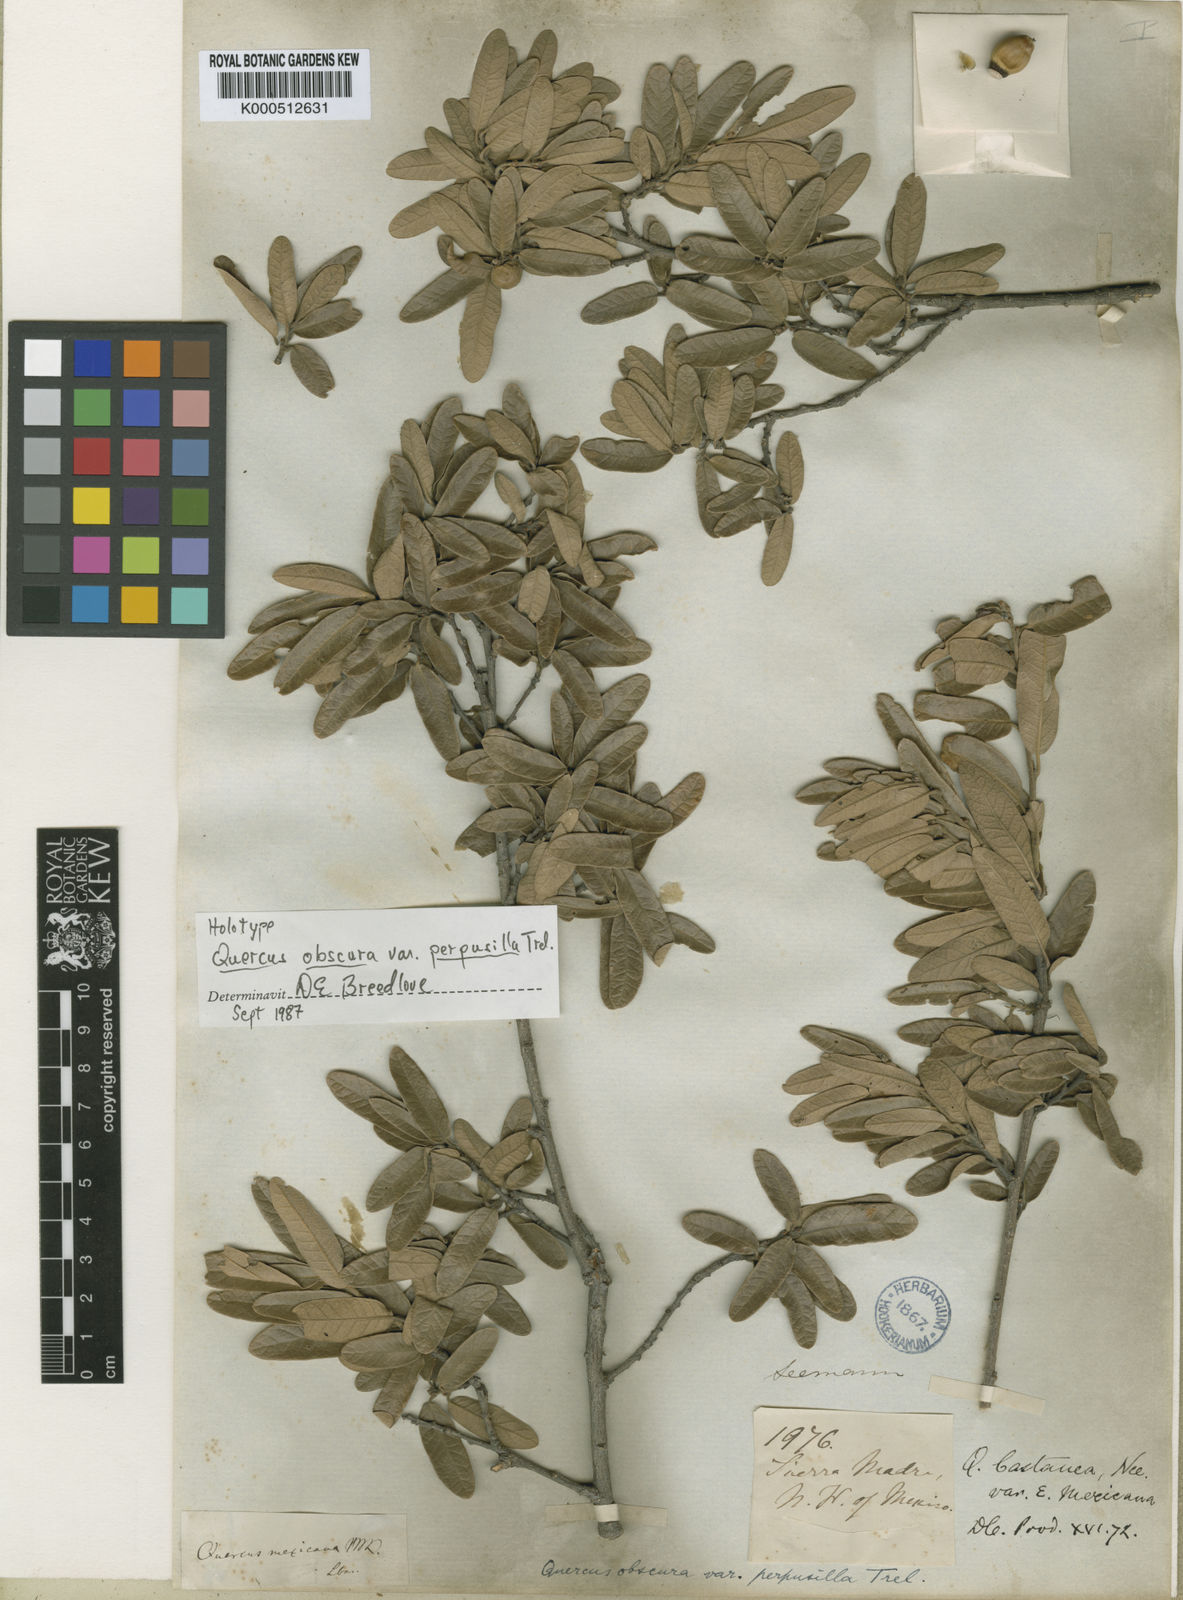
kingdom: Plantae
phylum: Tracheophyta
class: Magnoliopsida
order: Fagales
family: Fagaceae
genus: Quercus
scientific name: Quercus laeta
